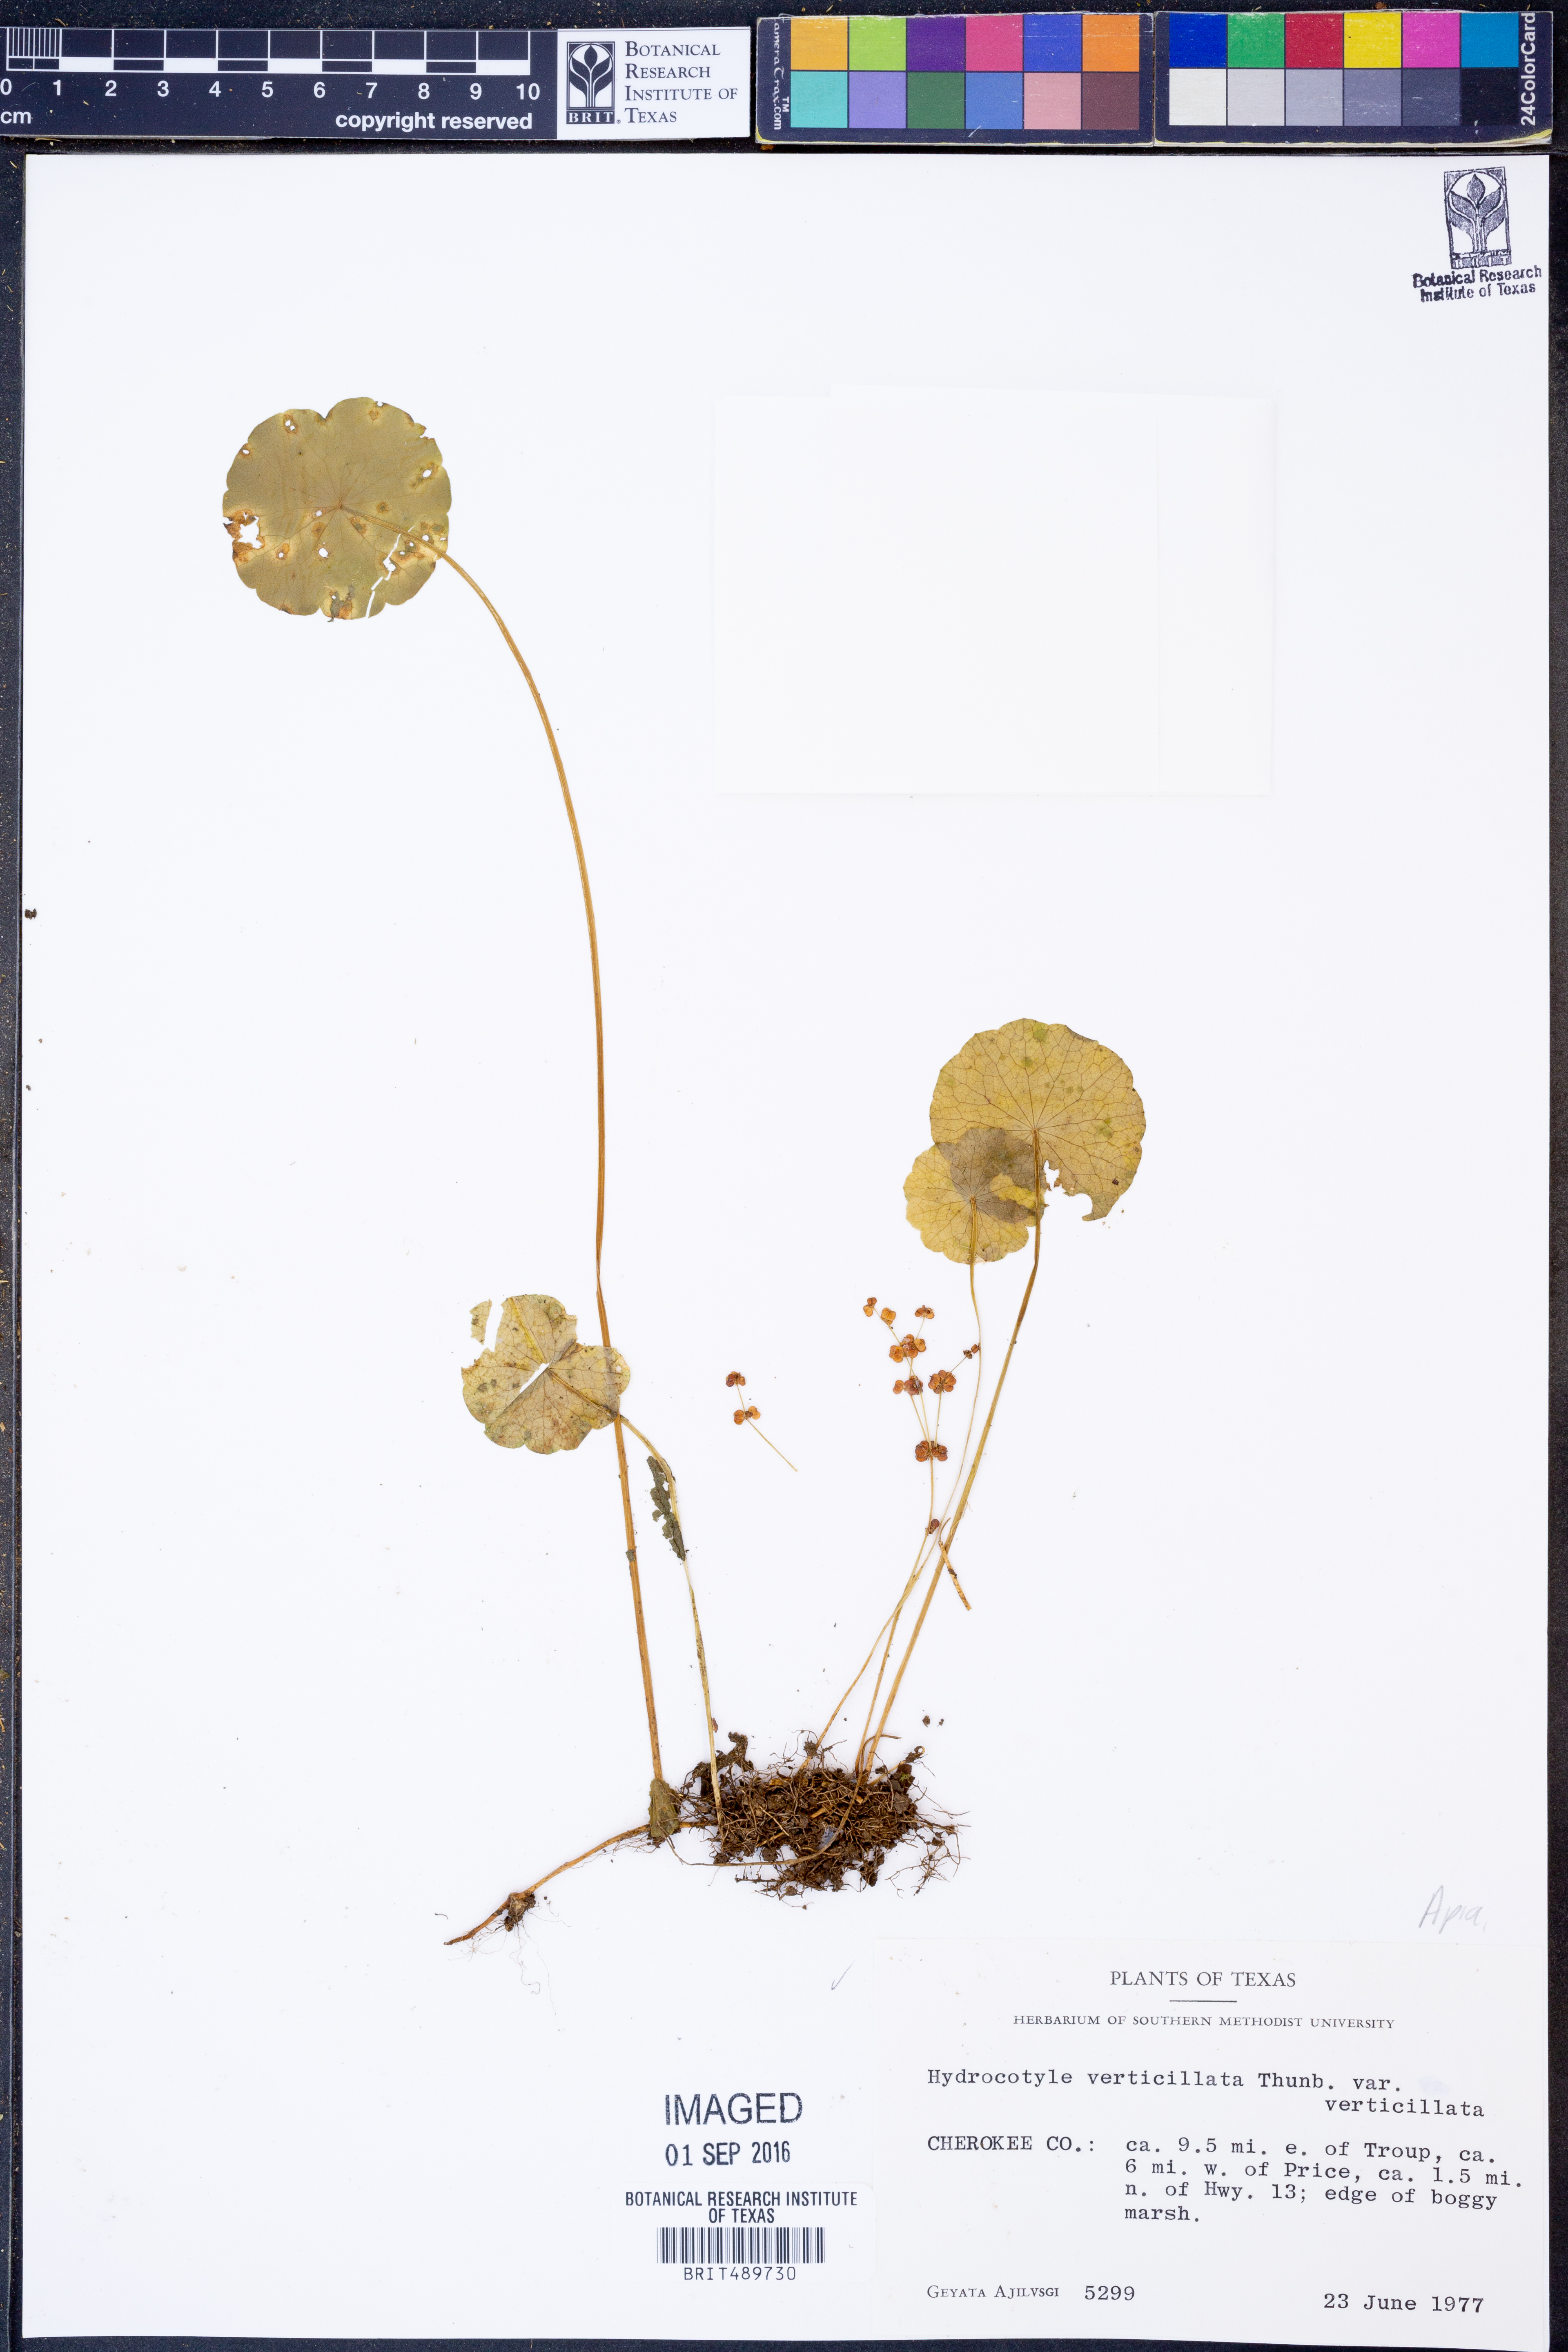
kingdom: Plantae
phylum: Tracheophyta
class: Magnoliopsida
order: Apiales
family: Araliaceae
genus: Hydrocotyle
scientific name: Hydrocotyle verticillata
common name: Whorled marshpennywort
